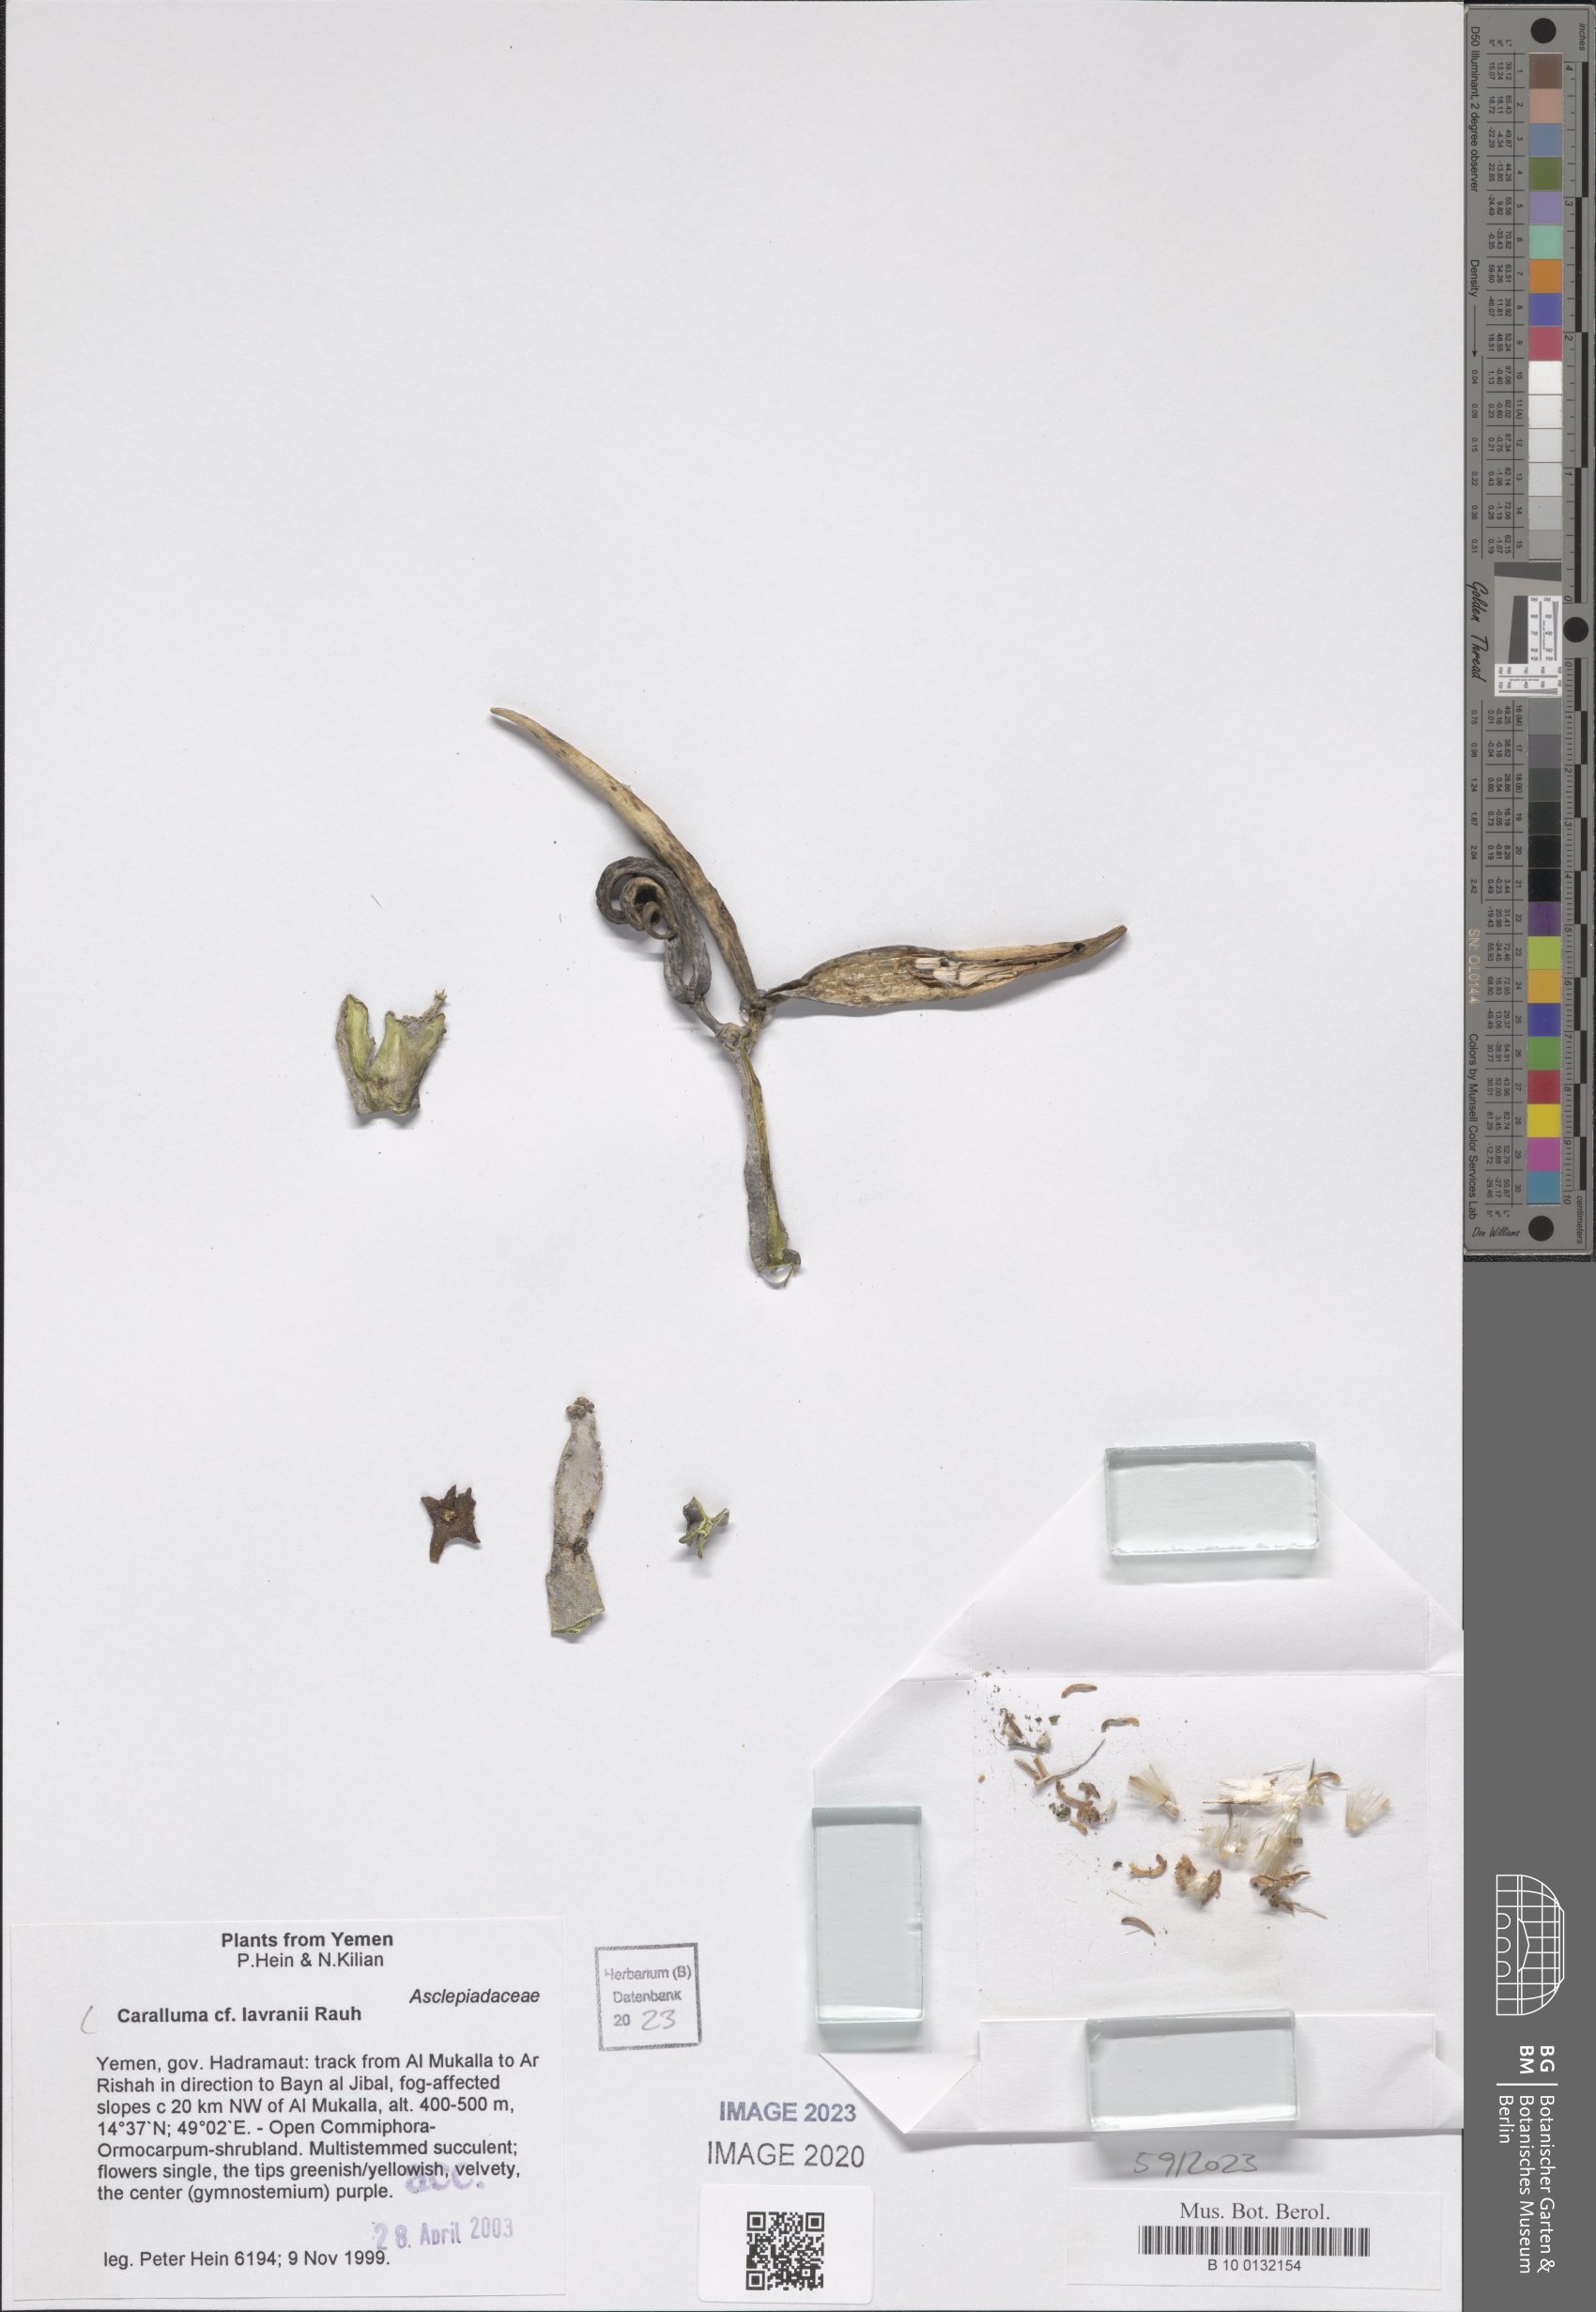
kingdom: Plantae
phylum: Tracheophyta
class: Magnoliopsida
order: Gentianales
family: Apocynaceae
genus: Ceropegia
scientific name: Ceropegia dolichocarpa
